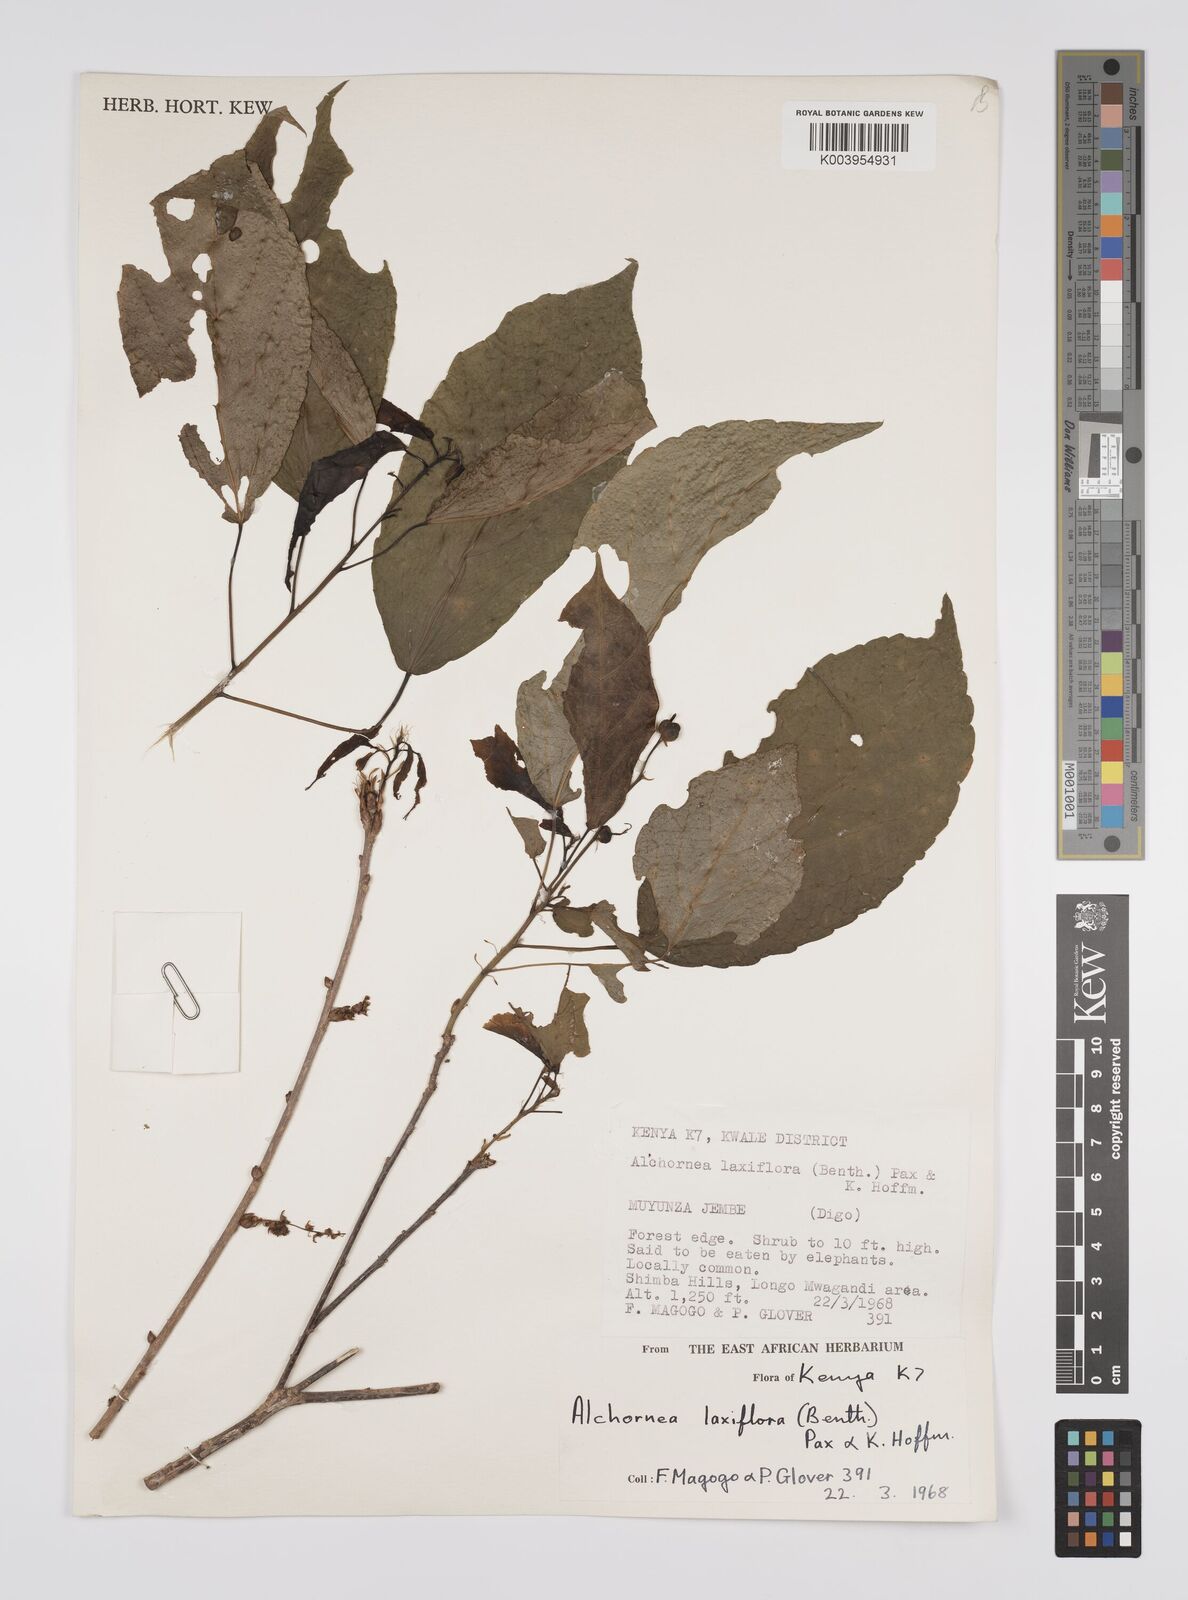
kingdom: Plantae
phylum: Tracheophyta
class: Magnoliopsida
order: Malpighiales
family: Euphorbiaceae
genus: Alchornea
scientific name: Alchornea laxiflora
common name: Lowveld bead-string
